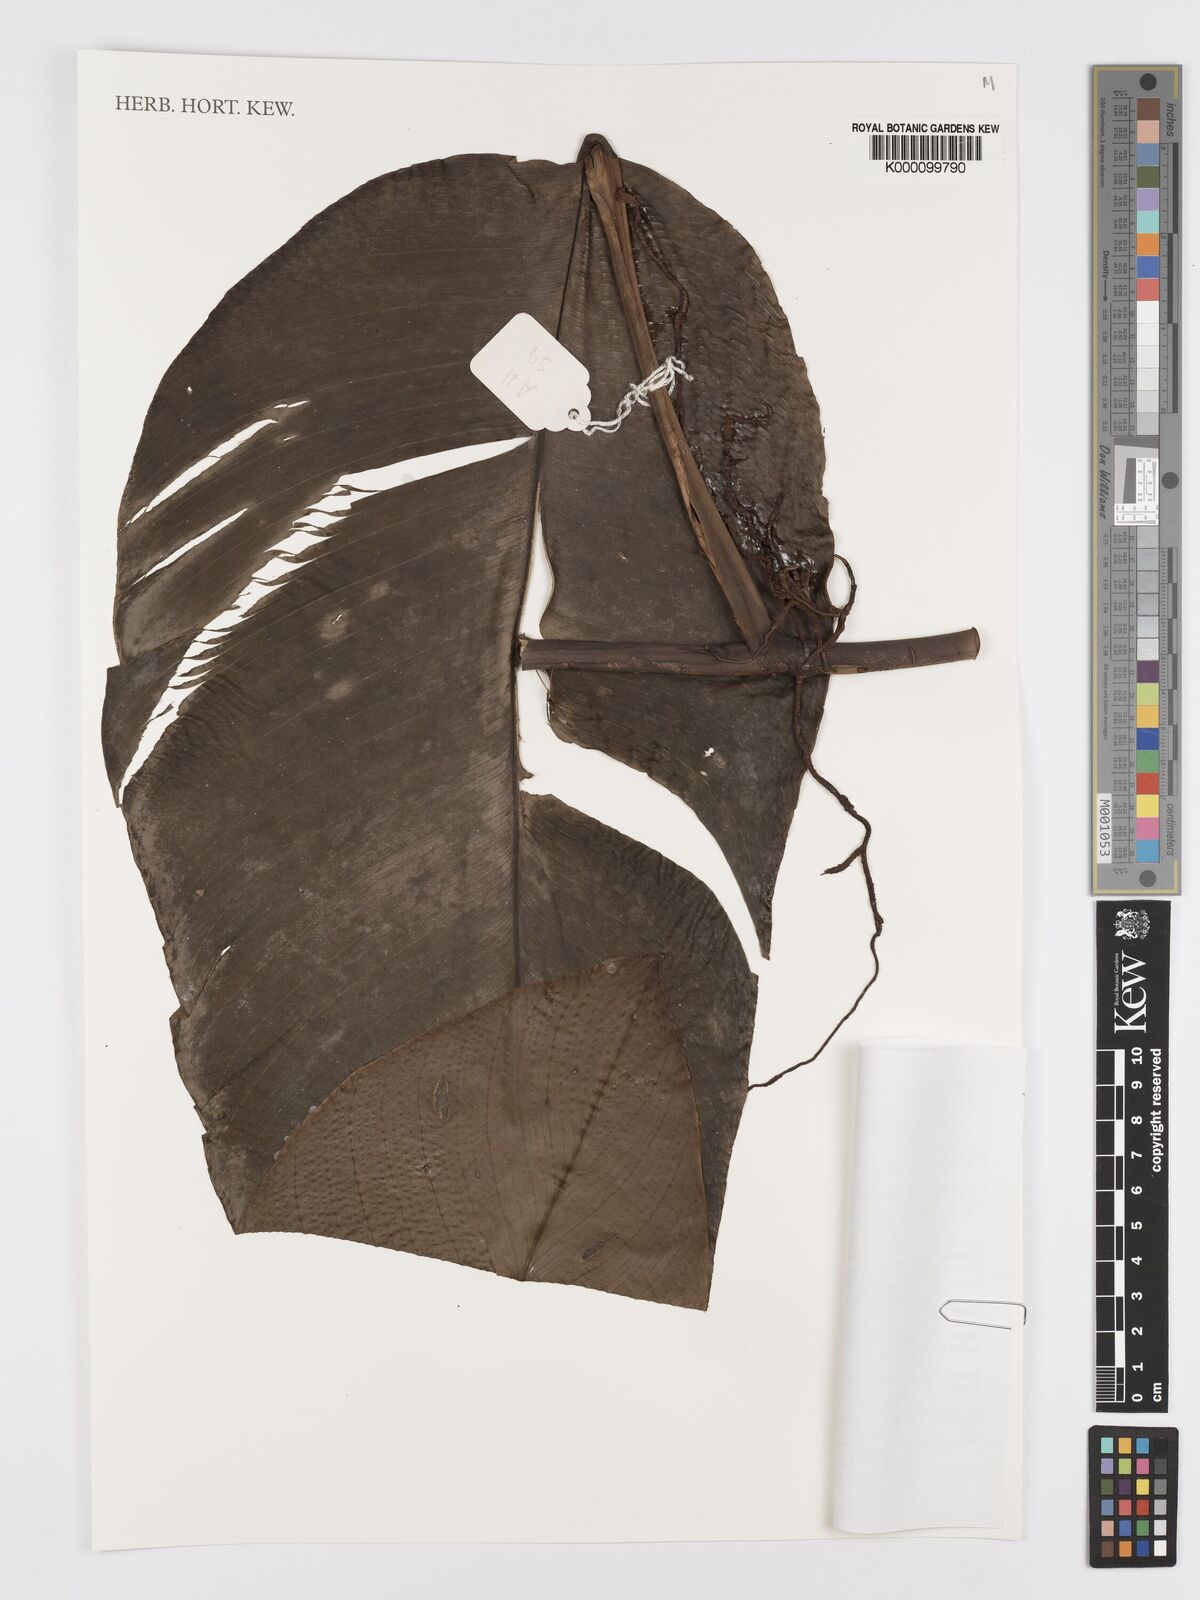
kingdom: Plantae
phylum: Tracheophyta
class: Liliopsida
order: Alismatales
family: Araceae
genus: Rhodospatha
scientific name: Rhodospatha venosa
